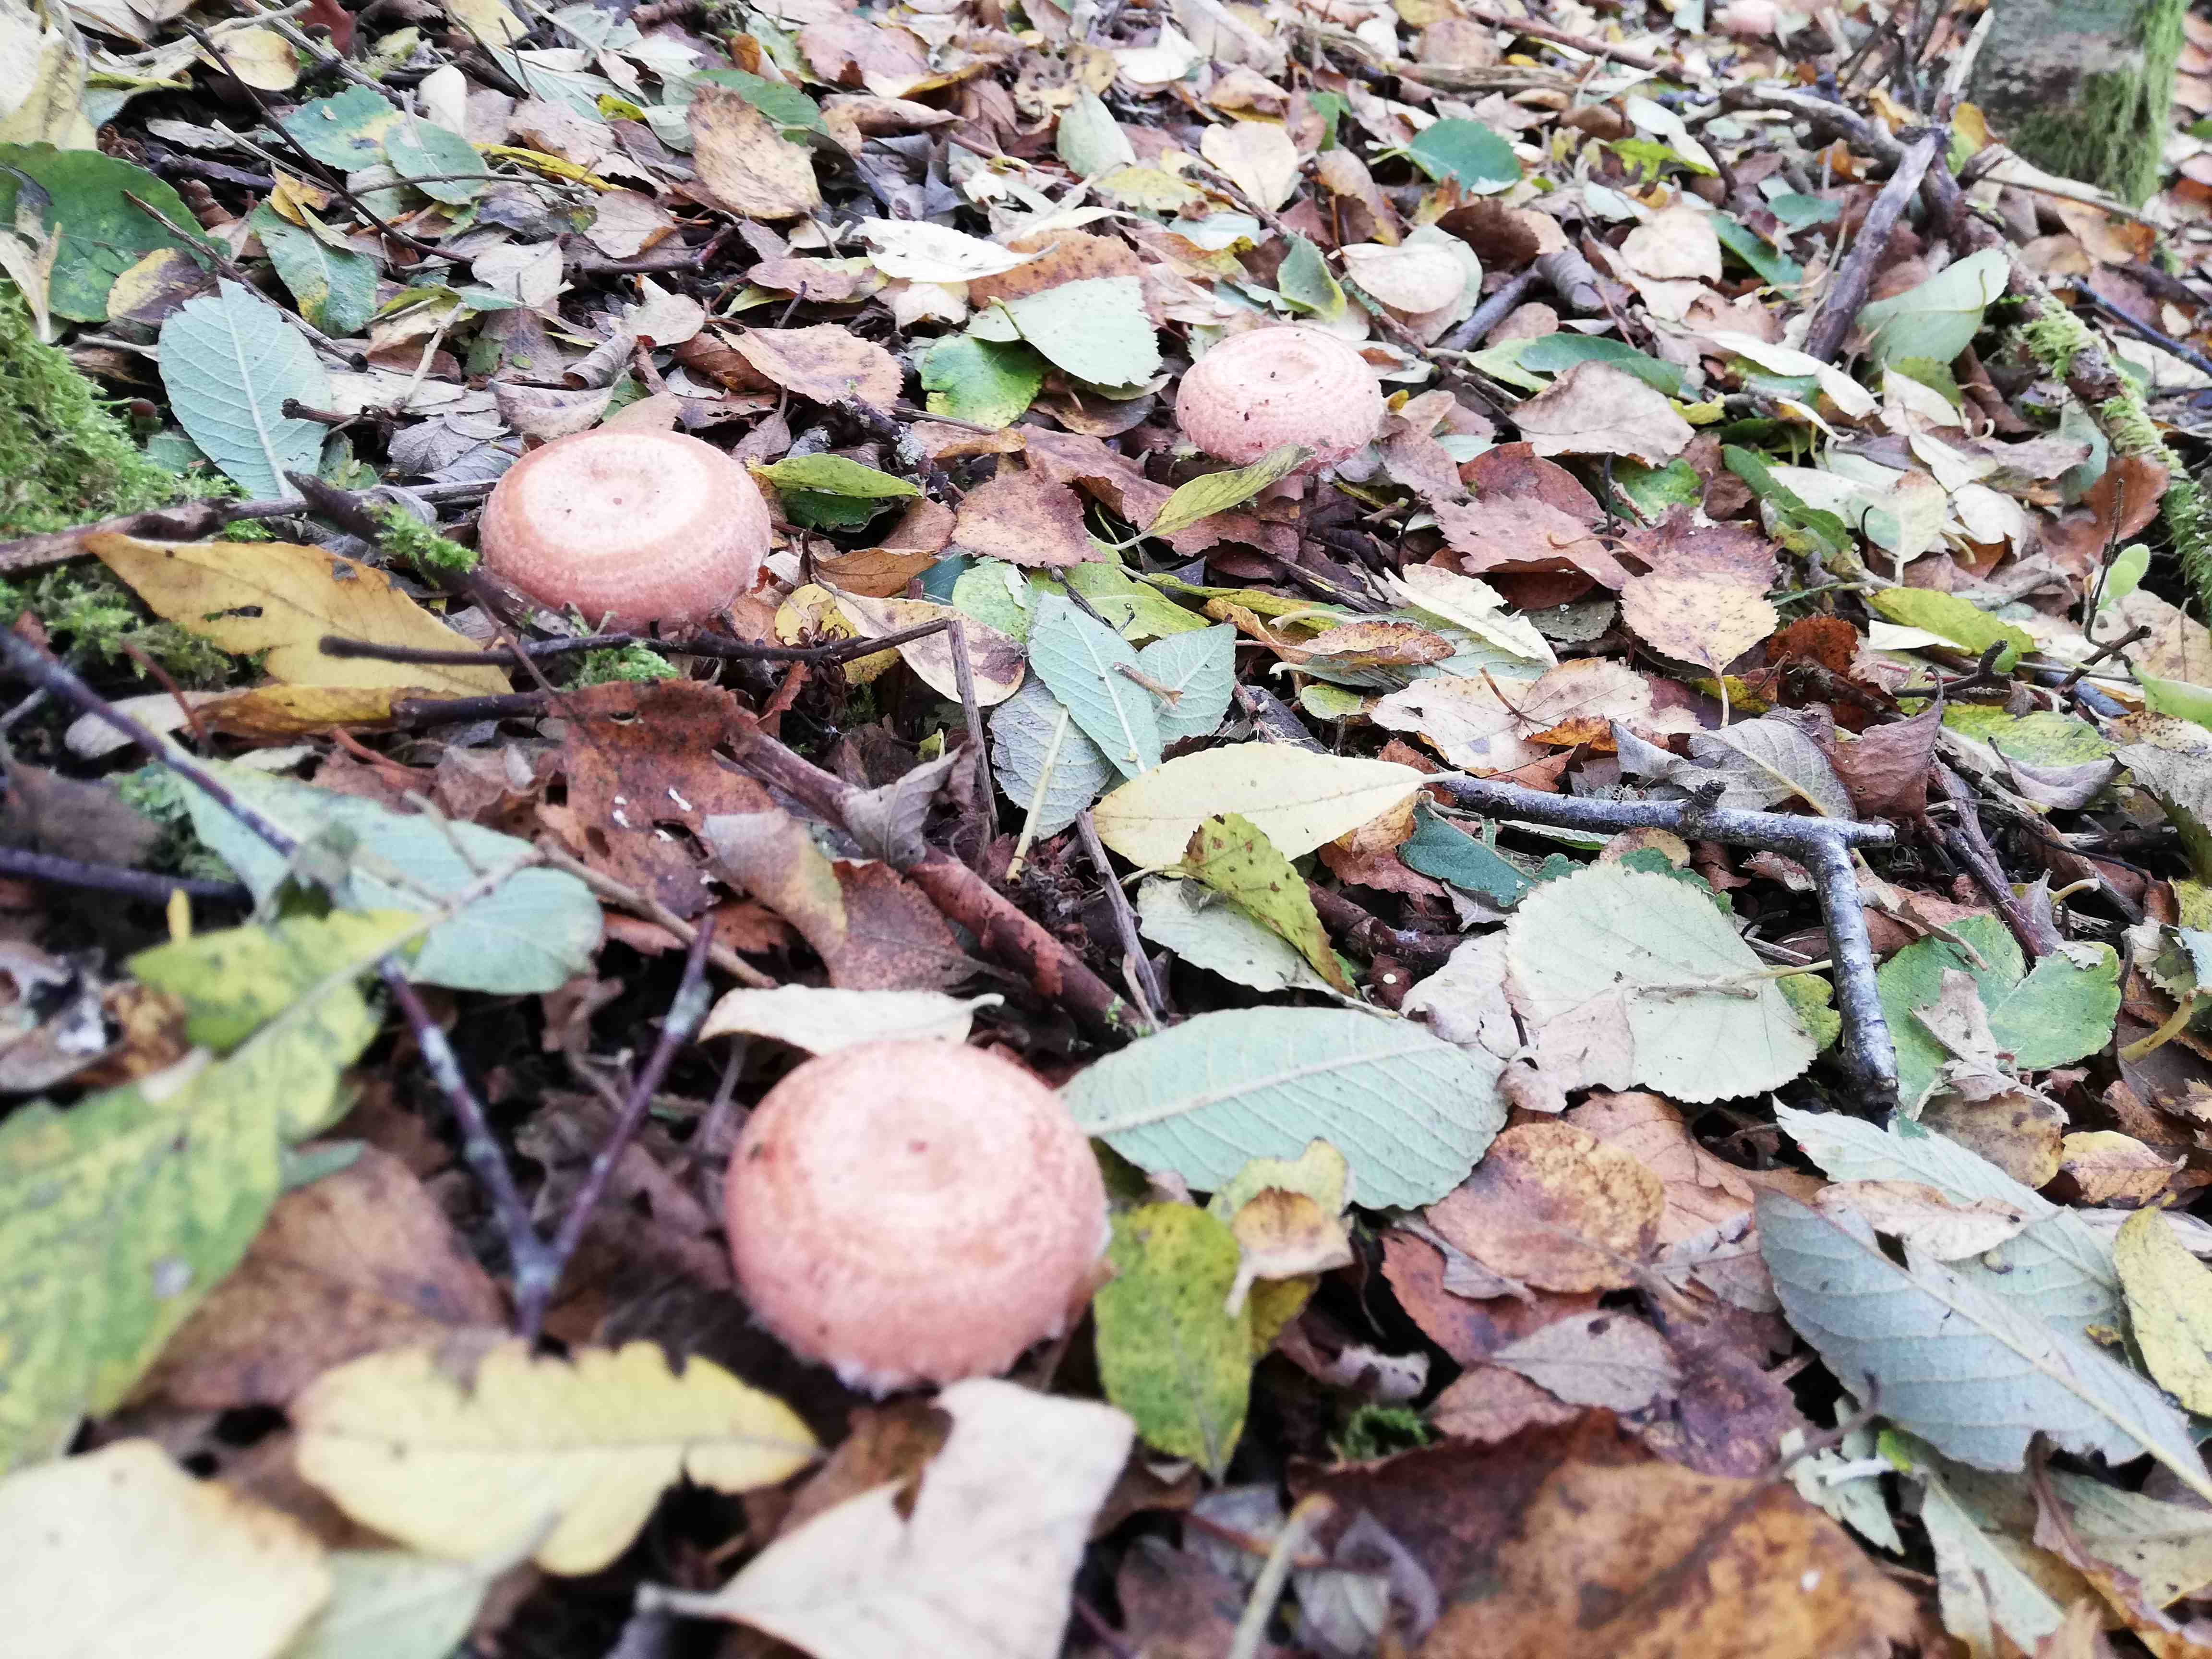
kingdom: Fungi
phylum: Basidiomycota
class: Agaricomycetes
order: Russulales
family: Russulaceae
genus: Lactarius
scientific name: Lactarius torminosus
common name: skægget mælkehat
